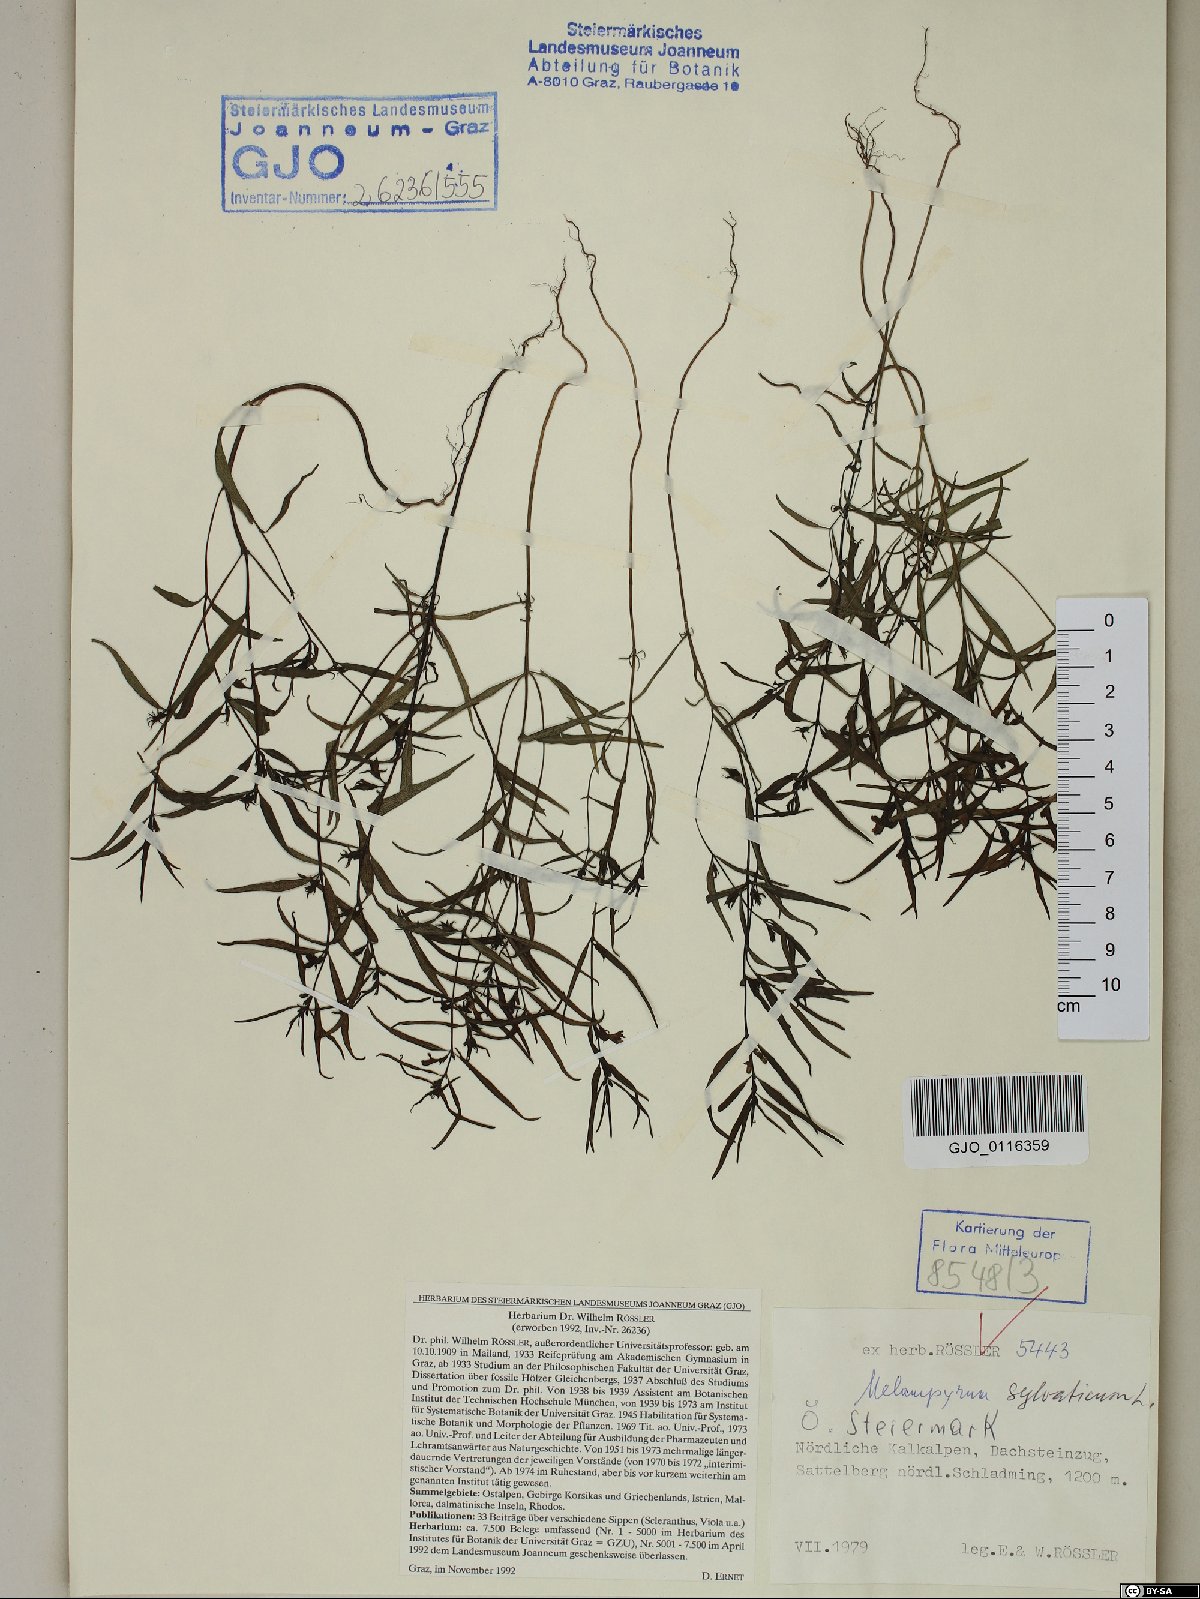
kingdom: Plantae
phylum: Tracheophyta
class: Magnoliopsida
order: Lamiales
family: Orobanchaceae
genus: Melampyrum
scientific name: Melampyrum sylvaticum
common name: Small cow-wheat
